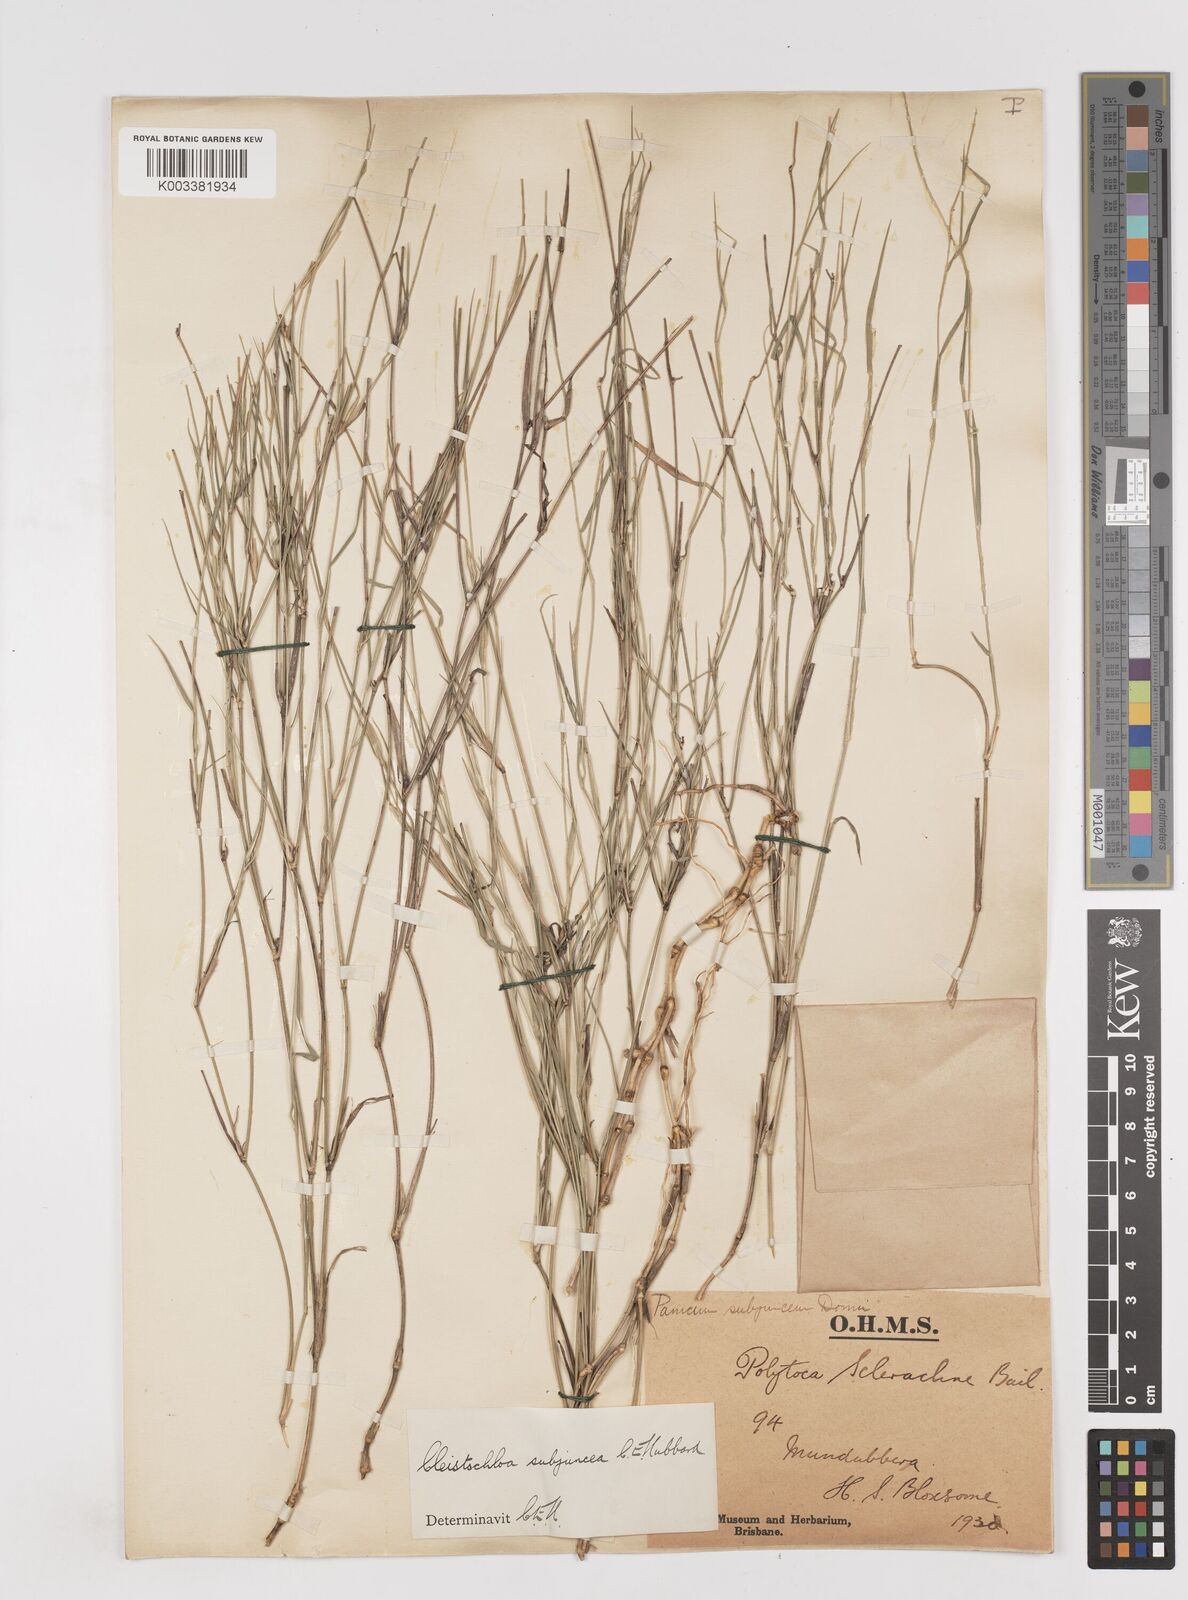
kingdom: Plantae
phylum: Tracheophyta
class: Liliopsida
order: Poales
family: Poaceae
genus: Cleistochloa
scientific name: Cleistochloa subjuncea
